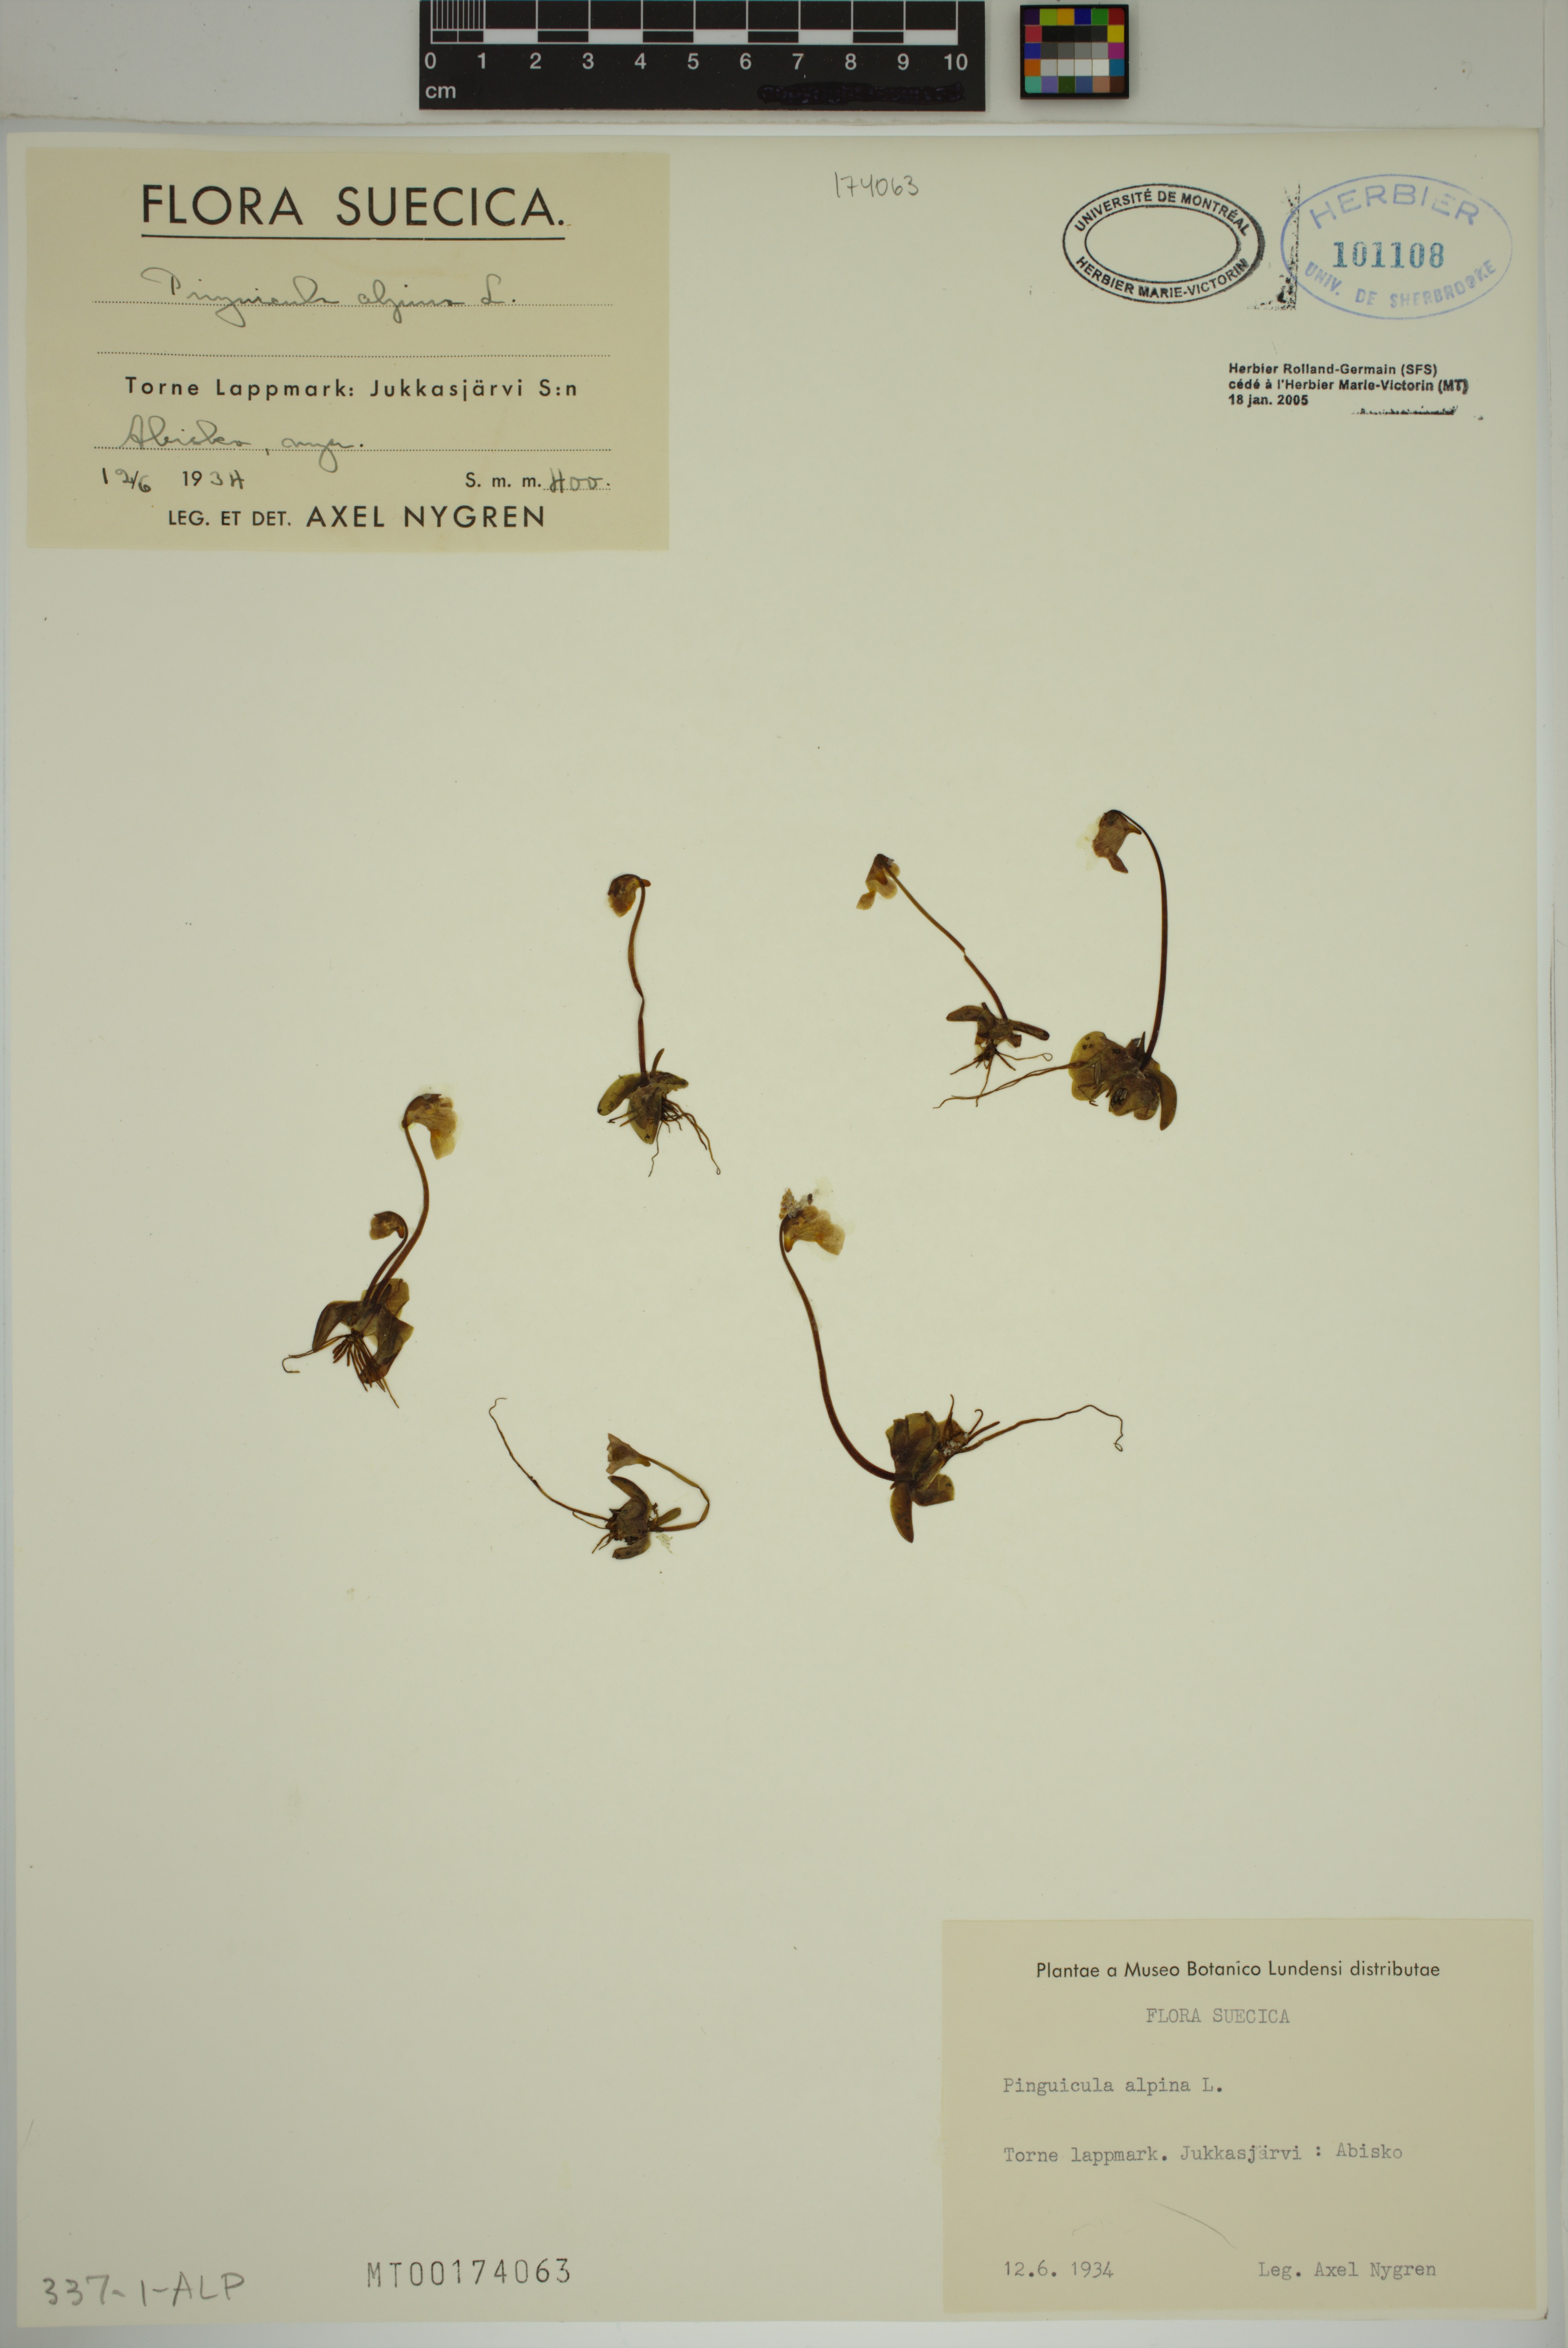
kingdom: Plantae
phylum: Tracheophyta
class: Magnoliopsida
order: Lamiales
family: Lentibulariaceae
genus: Pinguicula
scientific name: Pinguicula alpina
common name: Alpine butterwort
